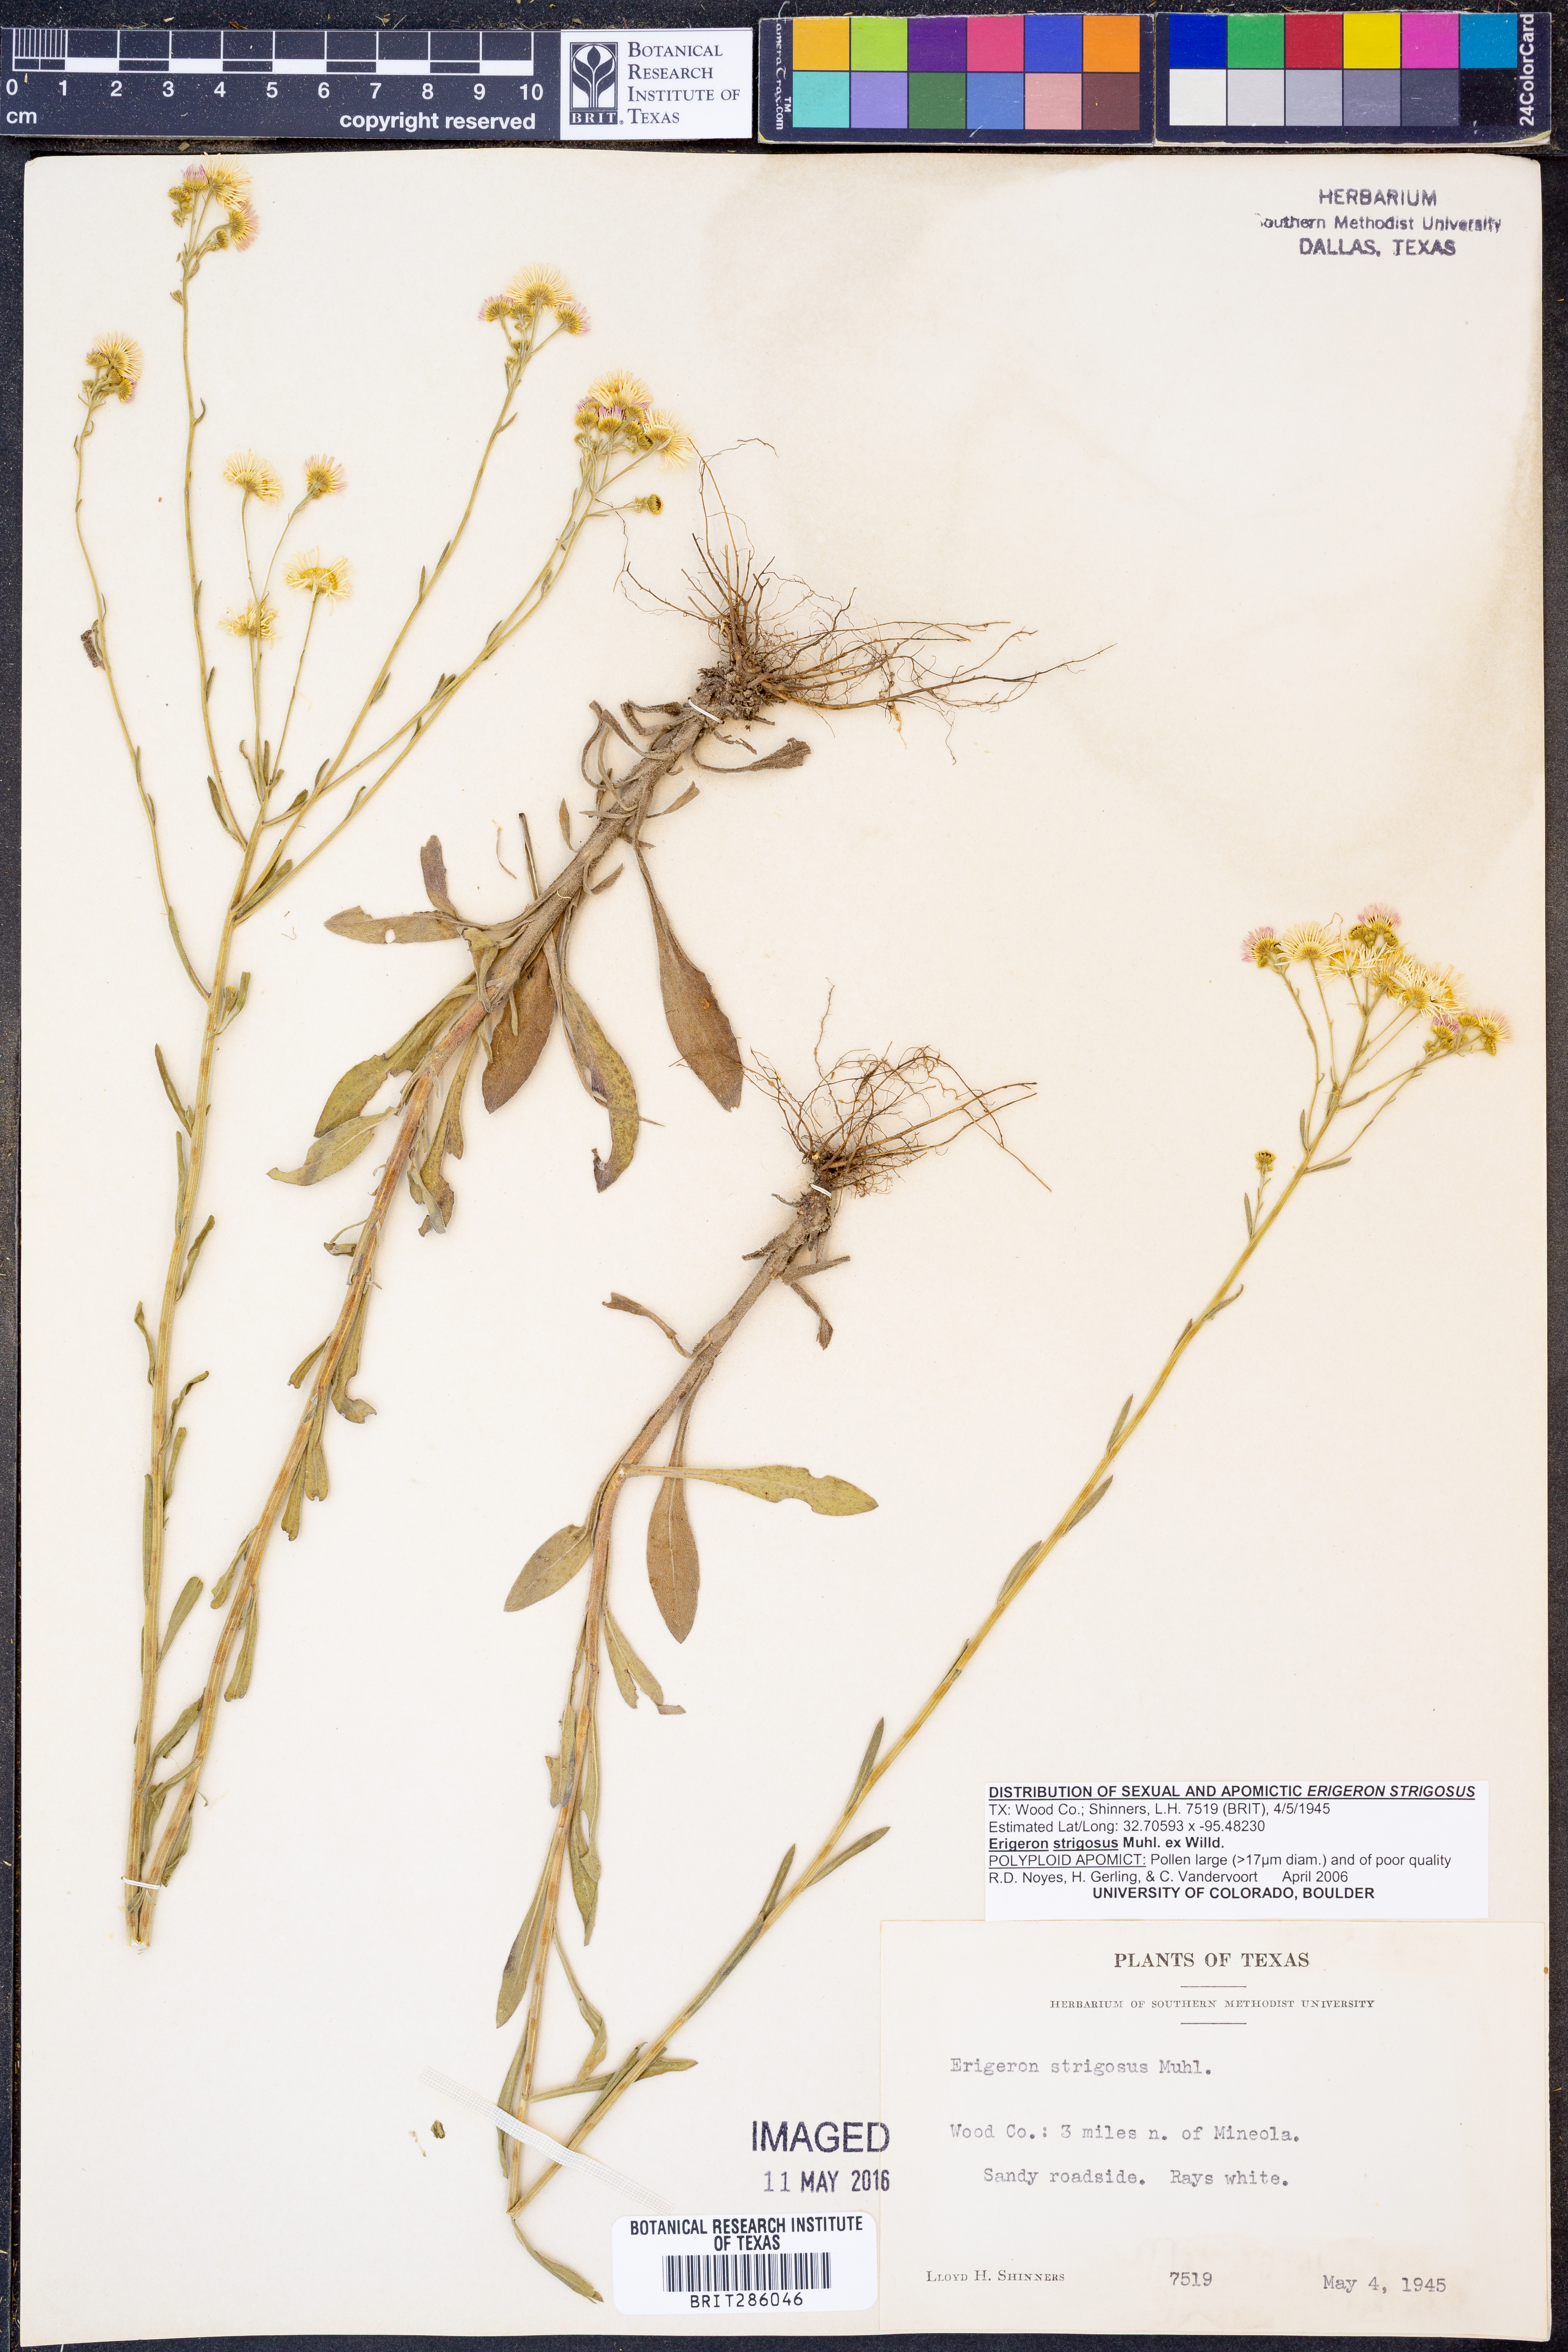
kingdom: Plantae
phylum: Tracheophyta
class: Magnoliopsida
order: Asterales
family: Asteraceae
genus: Erigeron
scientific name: Erigeron strigosus
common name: Common eastern fleabane
